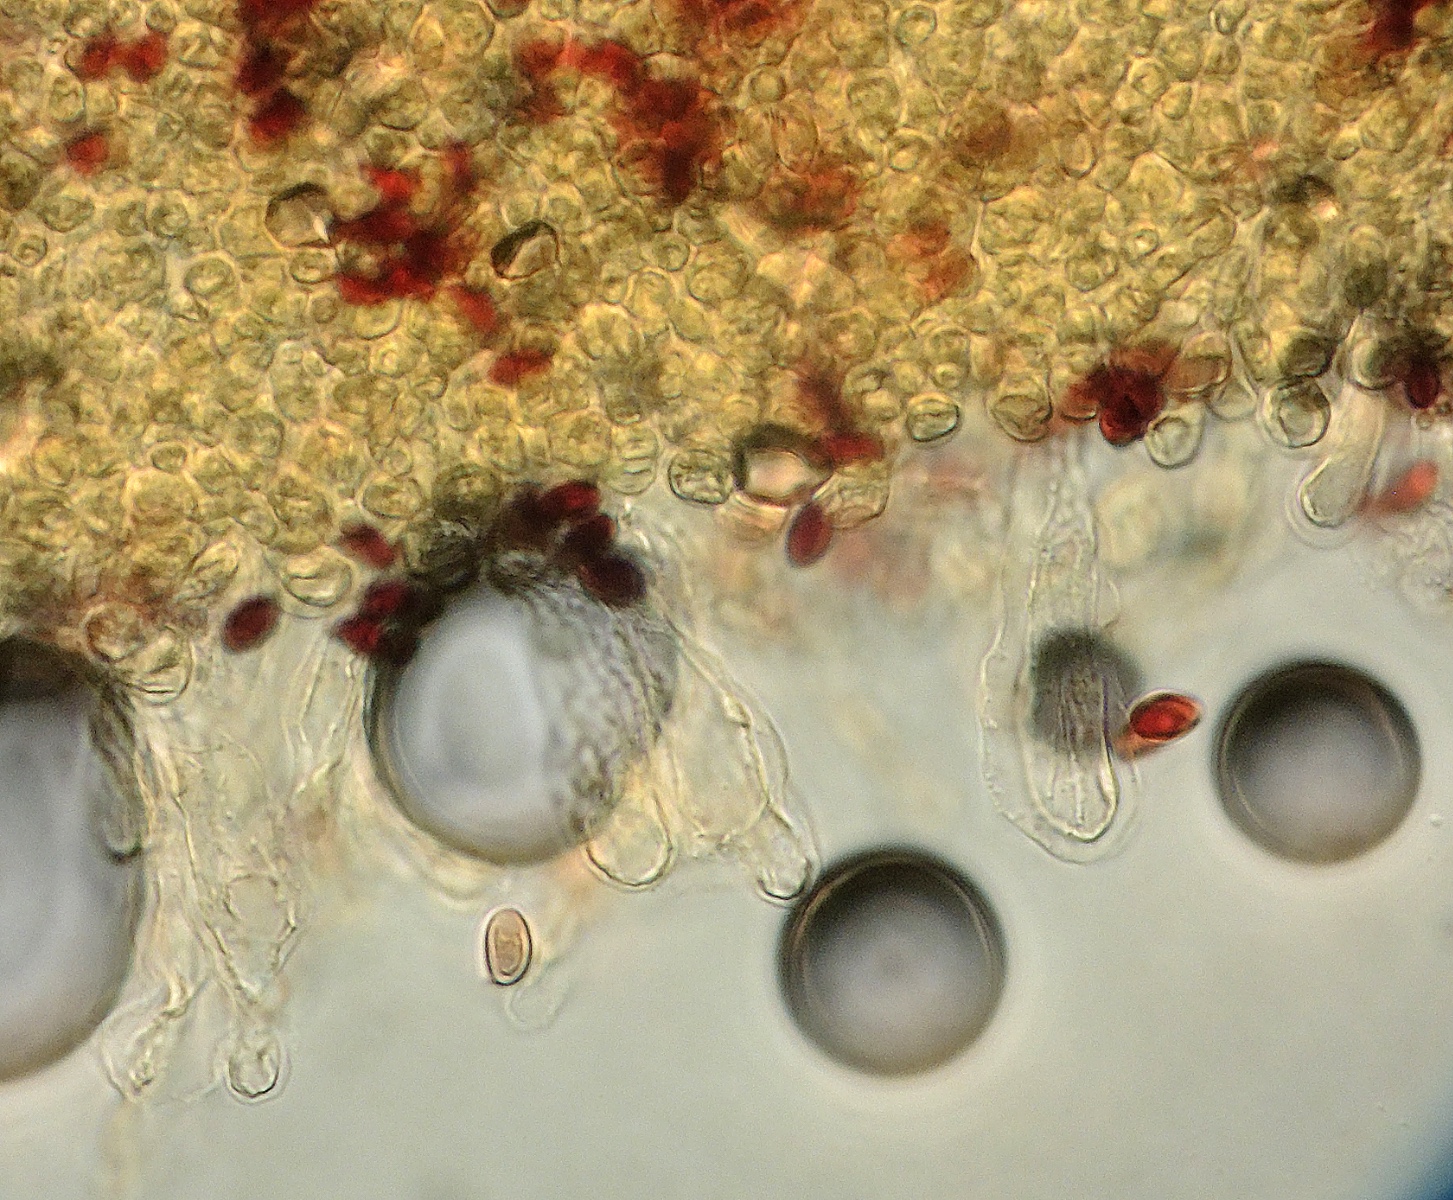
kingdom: Fungi
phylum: Basidiomycota
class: Agaricomycetes
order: Agaricales
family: Agaricaceae
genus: Leucoagaricus
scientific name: Leucoagaricus melanotrichus
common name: gråhåret silkehat
